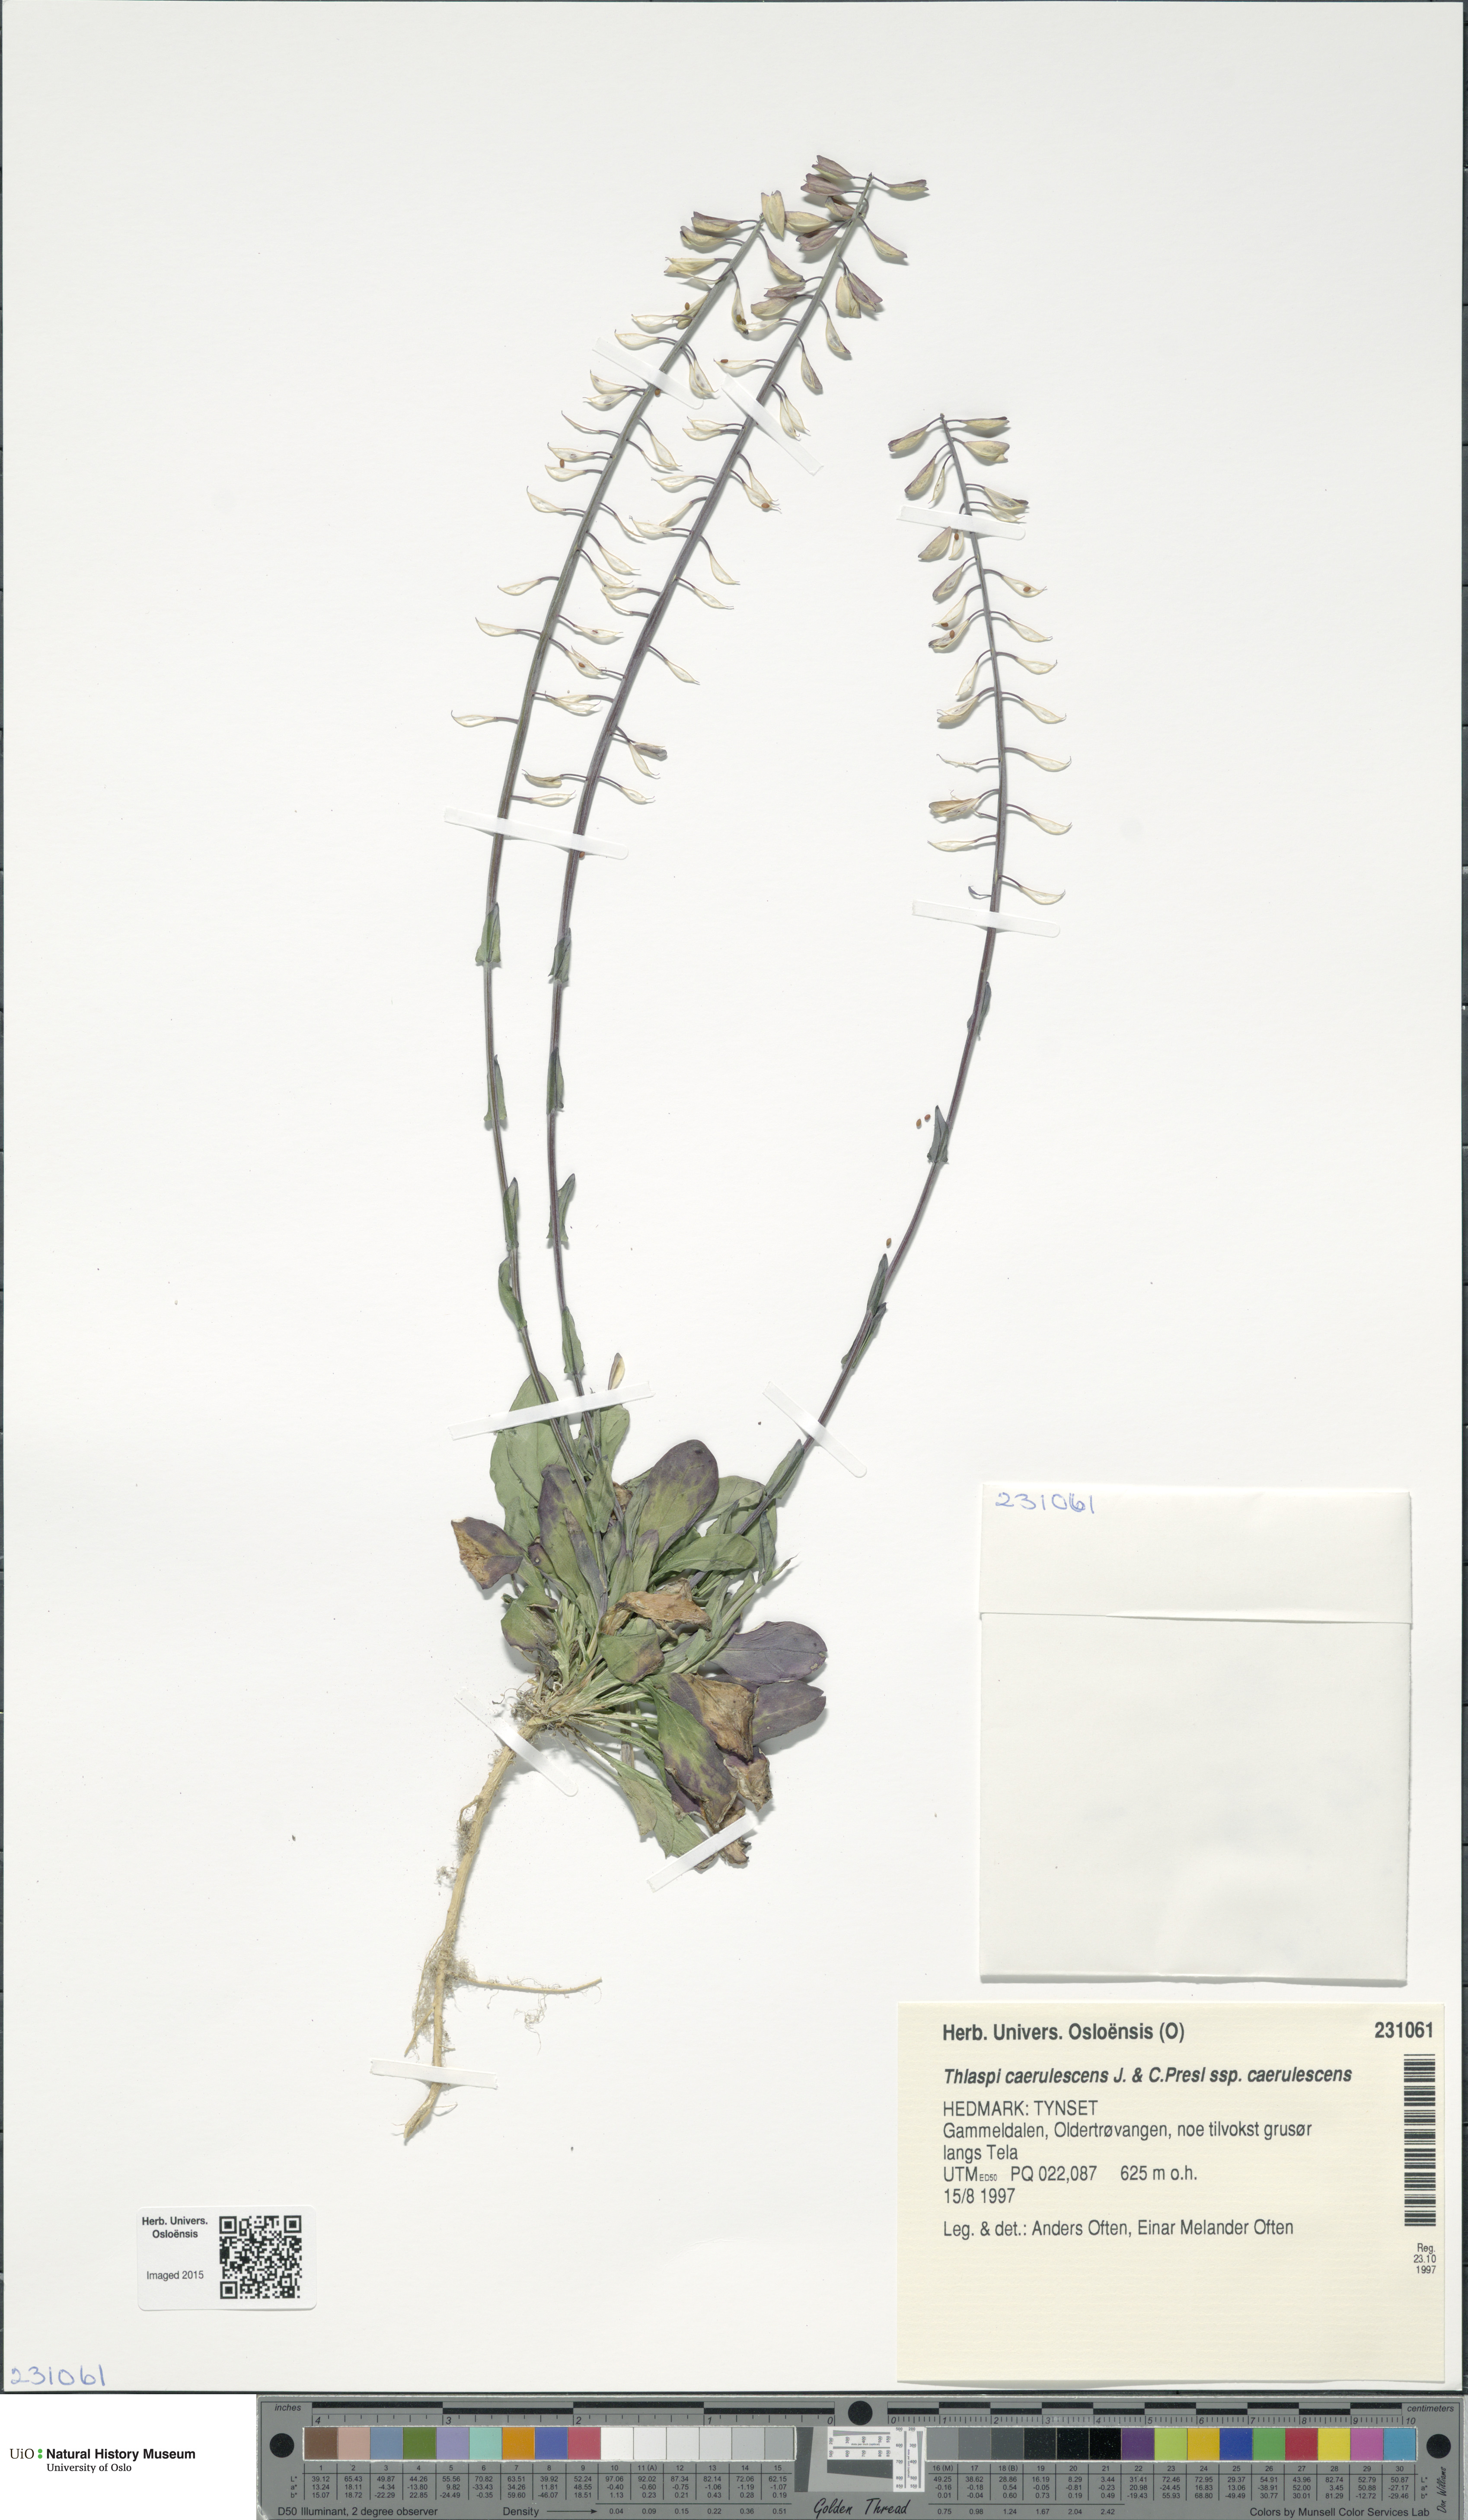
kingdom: Plantae
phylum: Tracheophyta
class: Magnoliopsida
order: Brassicales
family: Brassicaceae
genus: Noccaea
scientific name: Noccaea caerulescens
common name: Alpine pennycress
